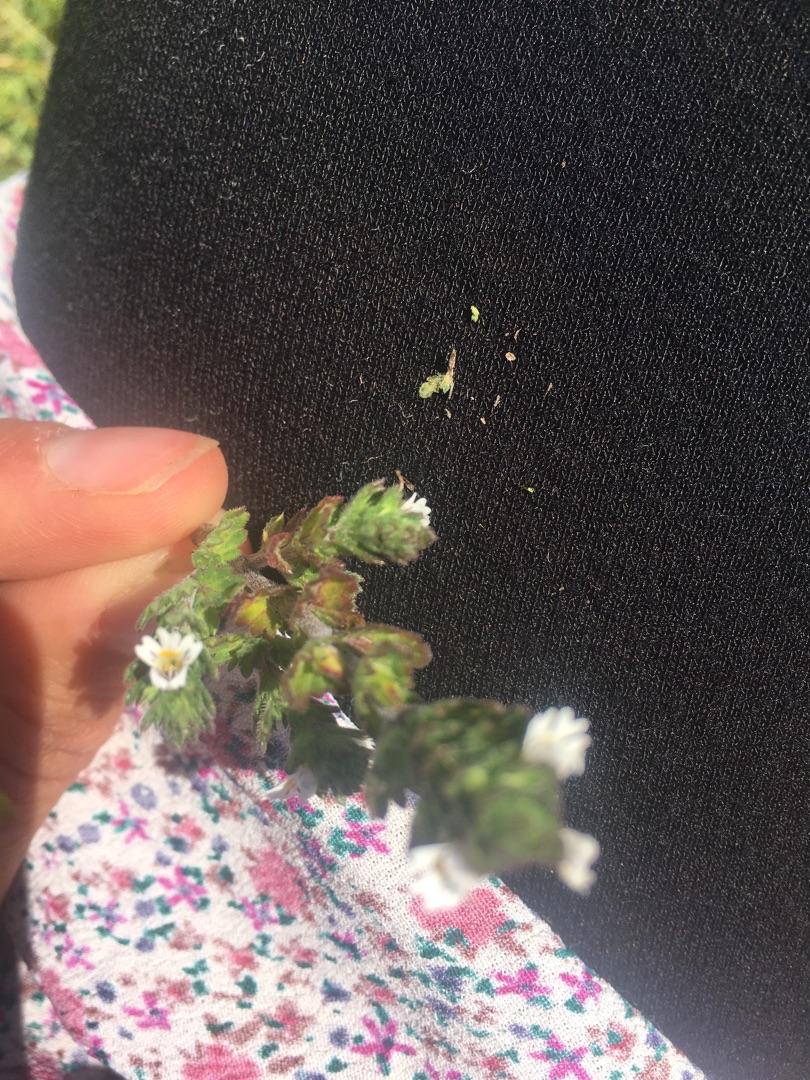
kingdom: Plantae
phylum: Tracheophyta
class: Magnoliopsida
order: Lamiales
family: Orobanchaceae
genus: Euphrasia
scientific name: Euphrasia nemorosa
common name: Kort øjentrøst
